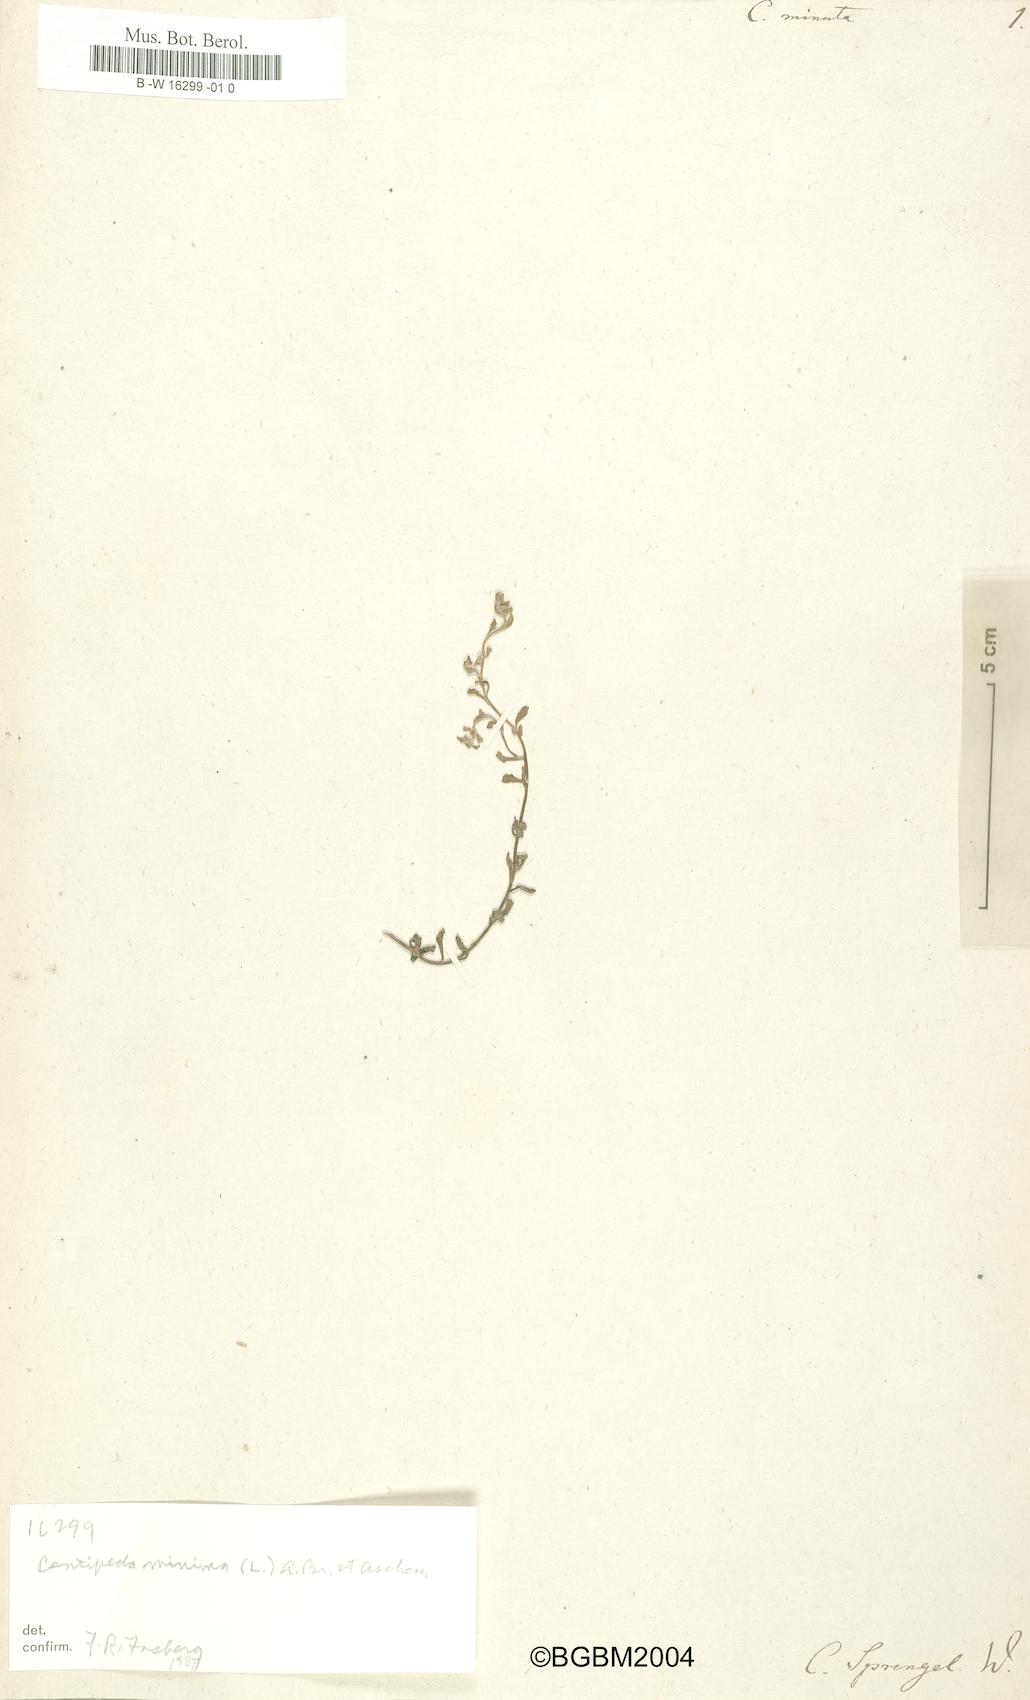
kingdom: Plantae
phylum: Tracheophyta
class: Magnoliopsida
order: Asterales
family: Asteraceae
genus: Centipeda
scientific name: Centipeda minima
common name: Spreading sneezeweed
